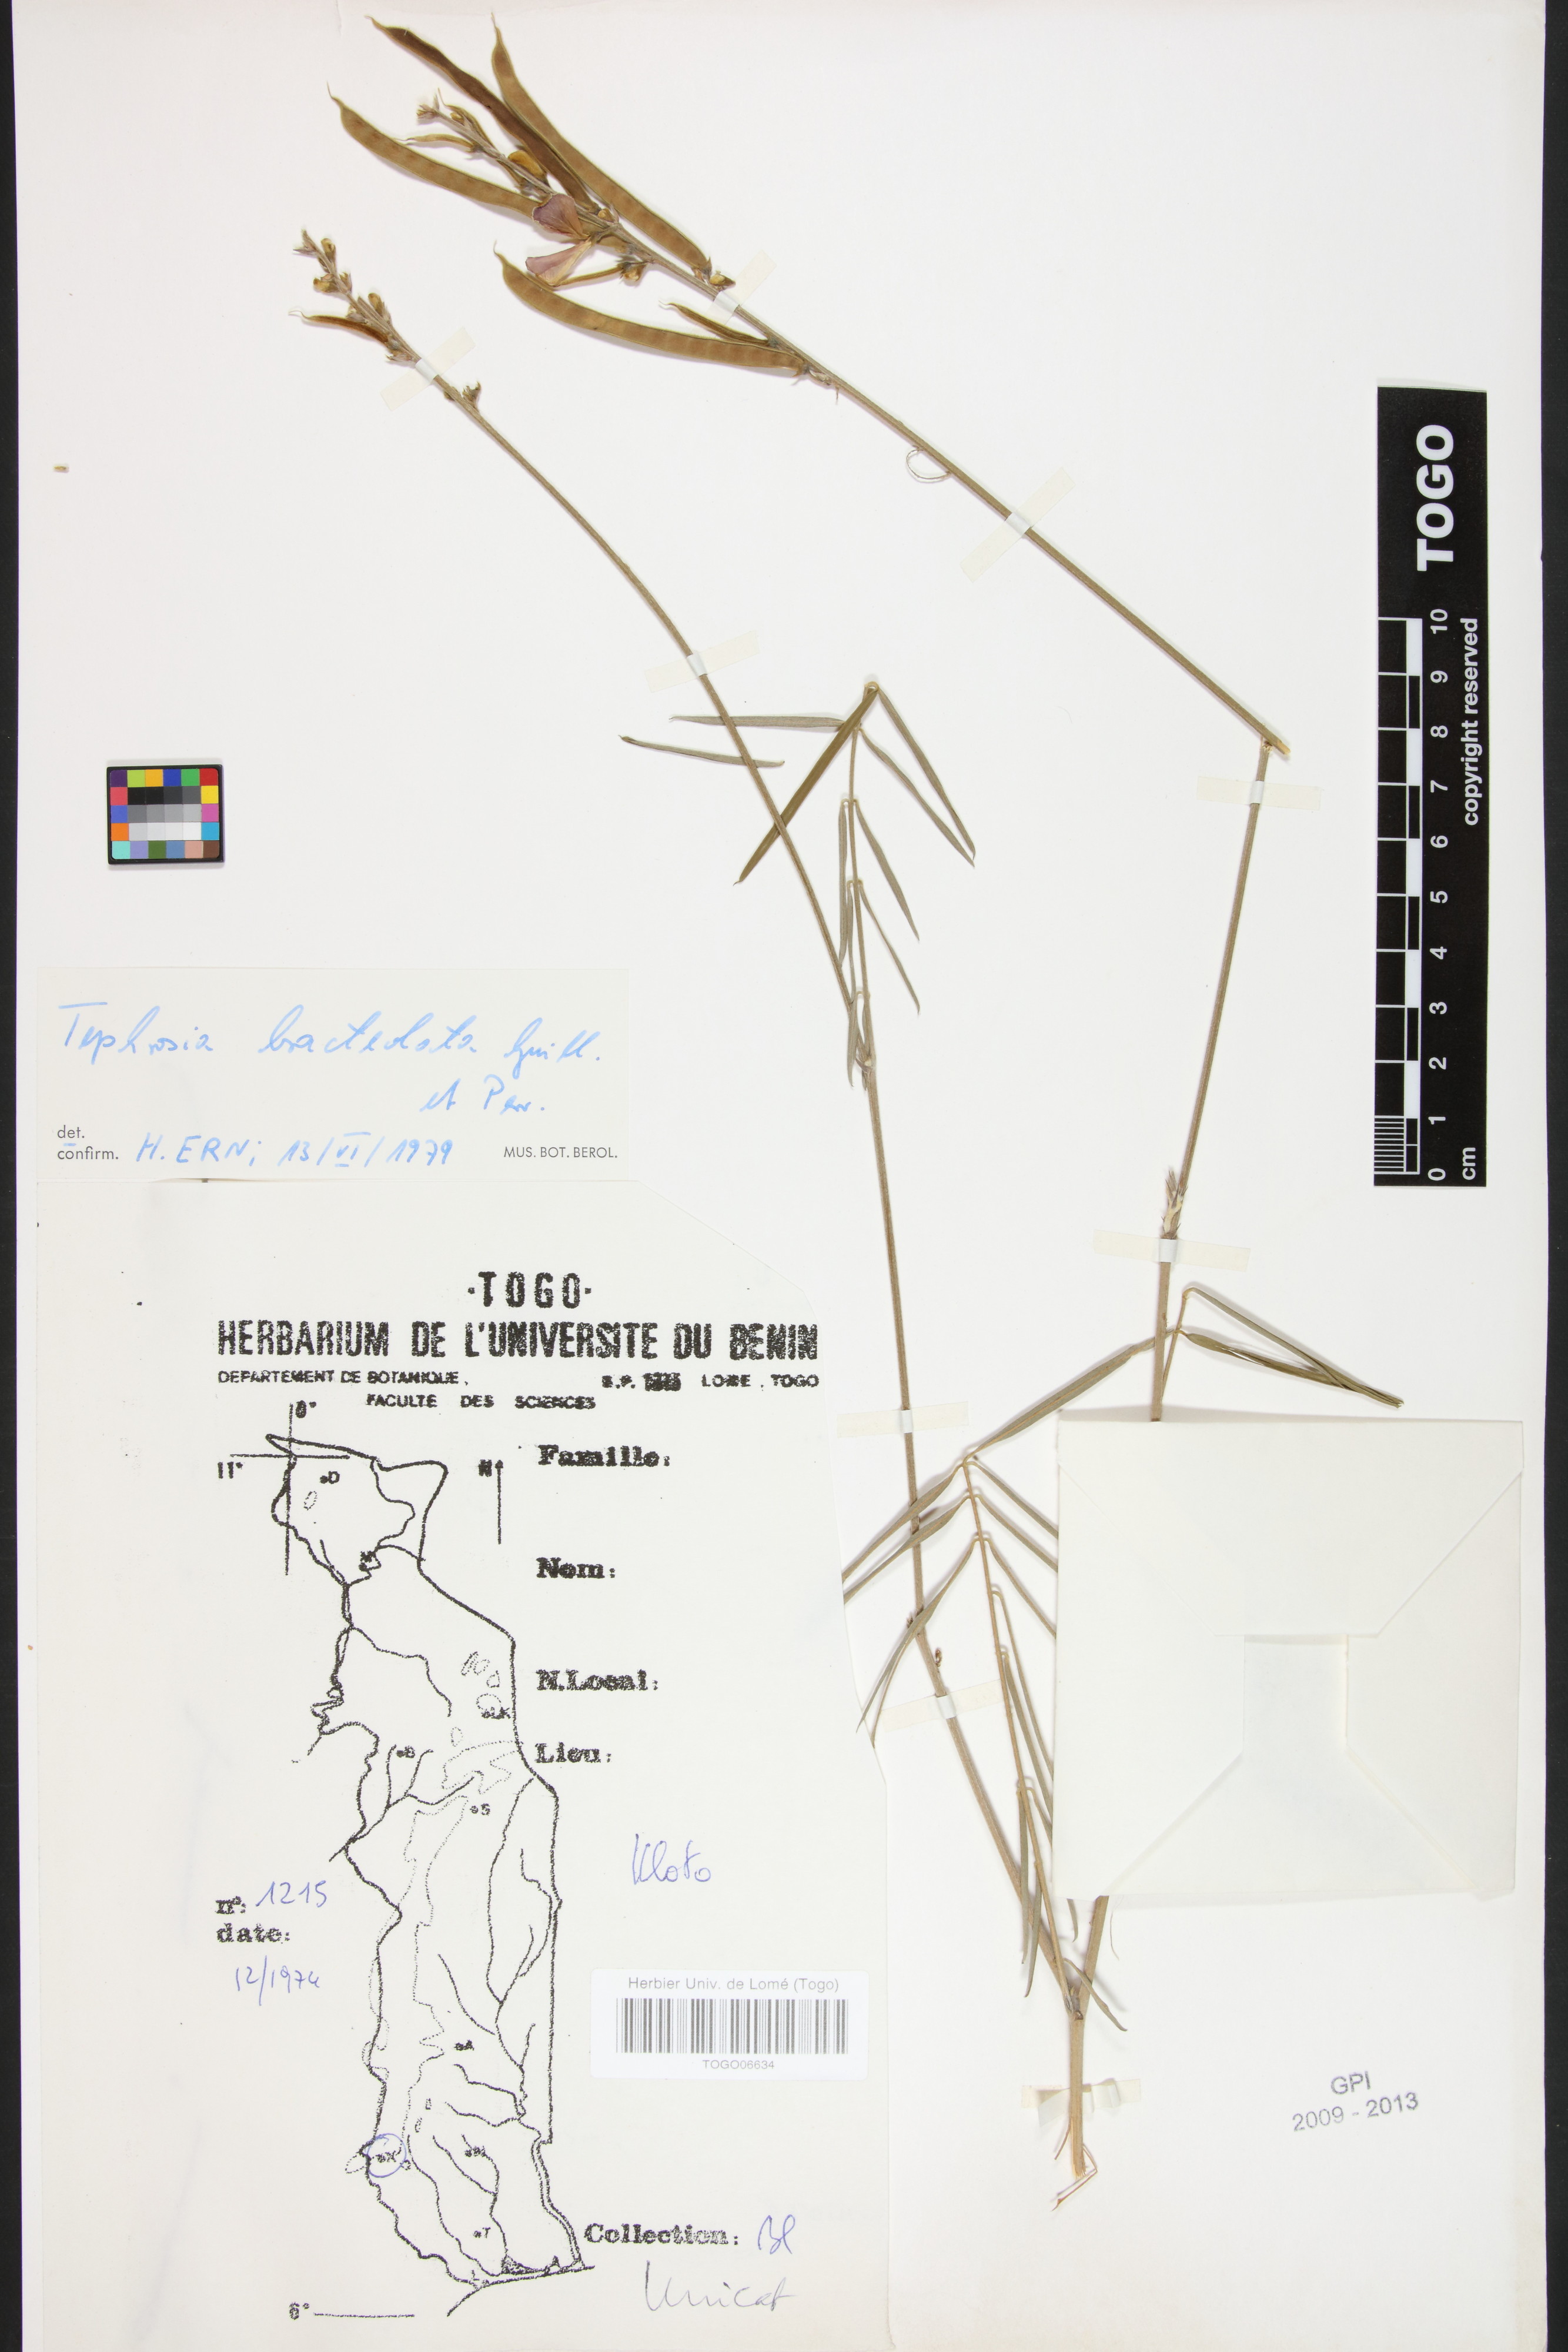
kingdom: Plantae
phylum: Tracheophyta
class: Magnoliopsida
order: Fabales
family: Fabaceae
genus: Tephrosia
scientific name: Tephrosia bracteolata
